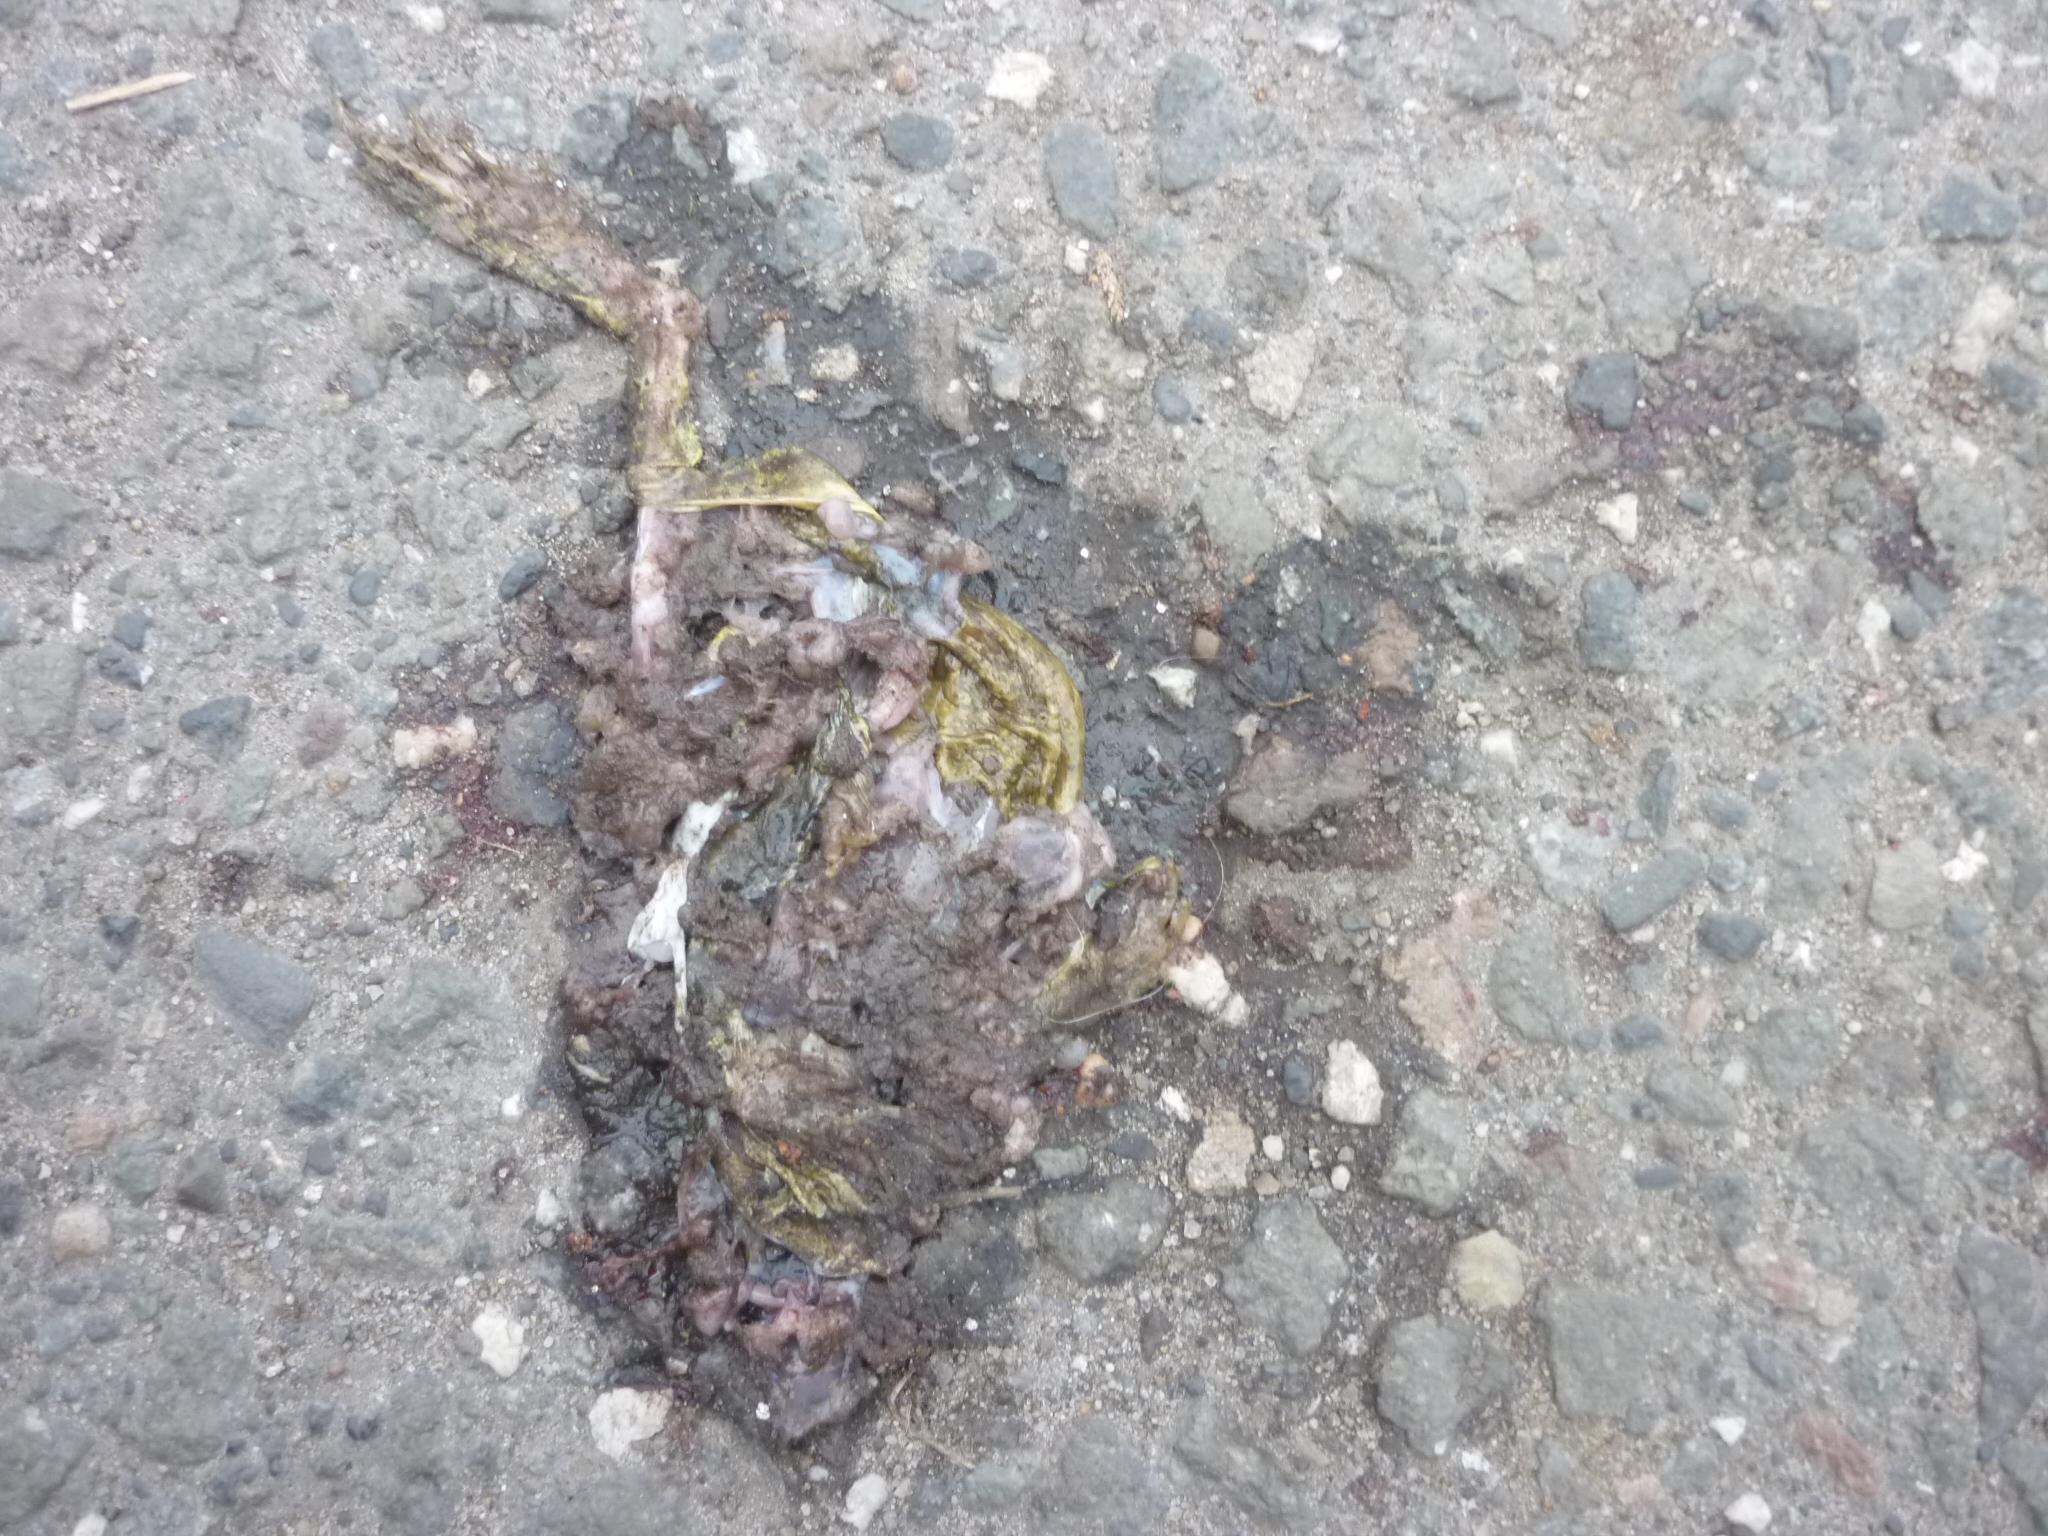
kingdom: Animalia
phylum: Chordata
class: Amphibia
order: Anura
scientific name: Anura
